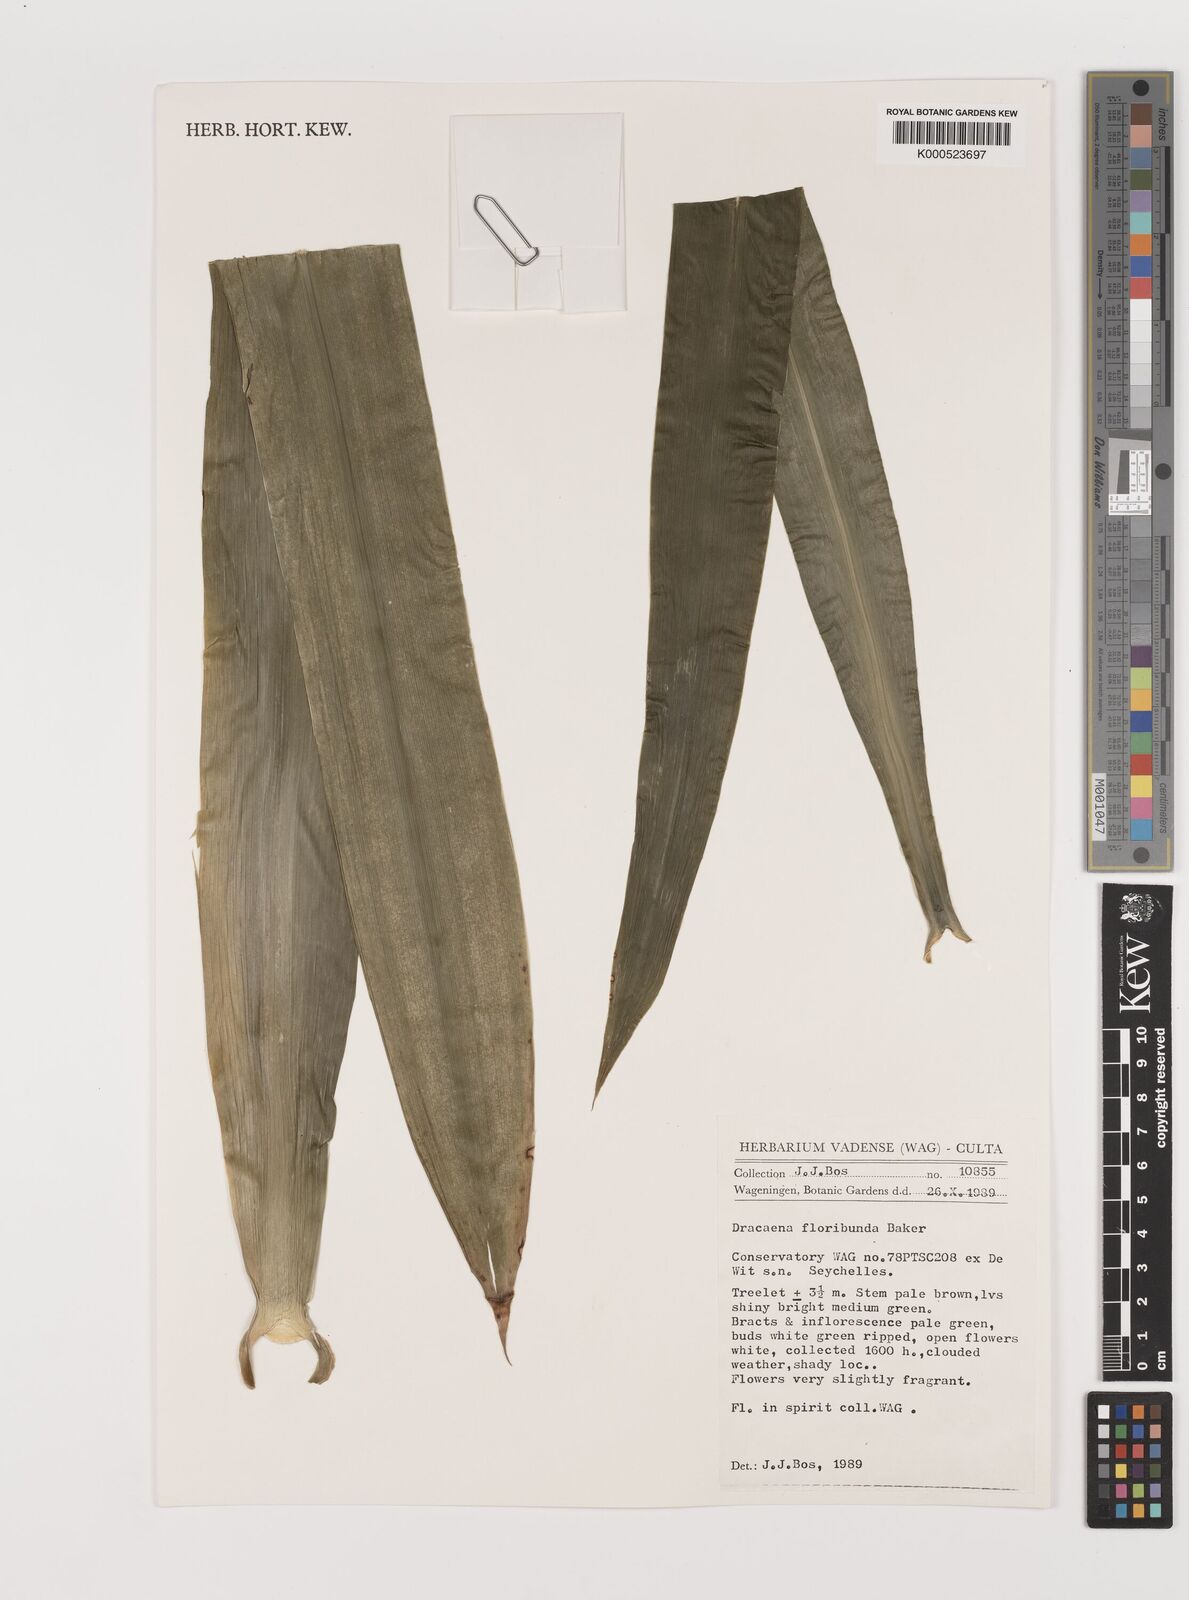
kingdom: Plantae
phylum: Tracheophyta
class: Liliopsida
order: Asparagales
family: Asparagaceae
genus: Dracaena
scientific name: Dracaena floribunda
